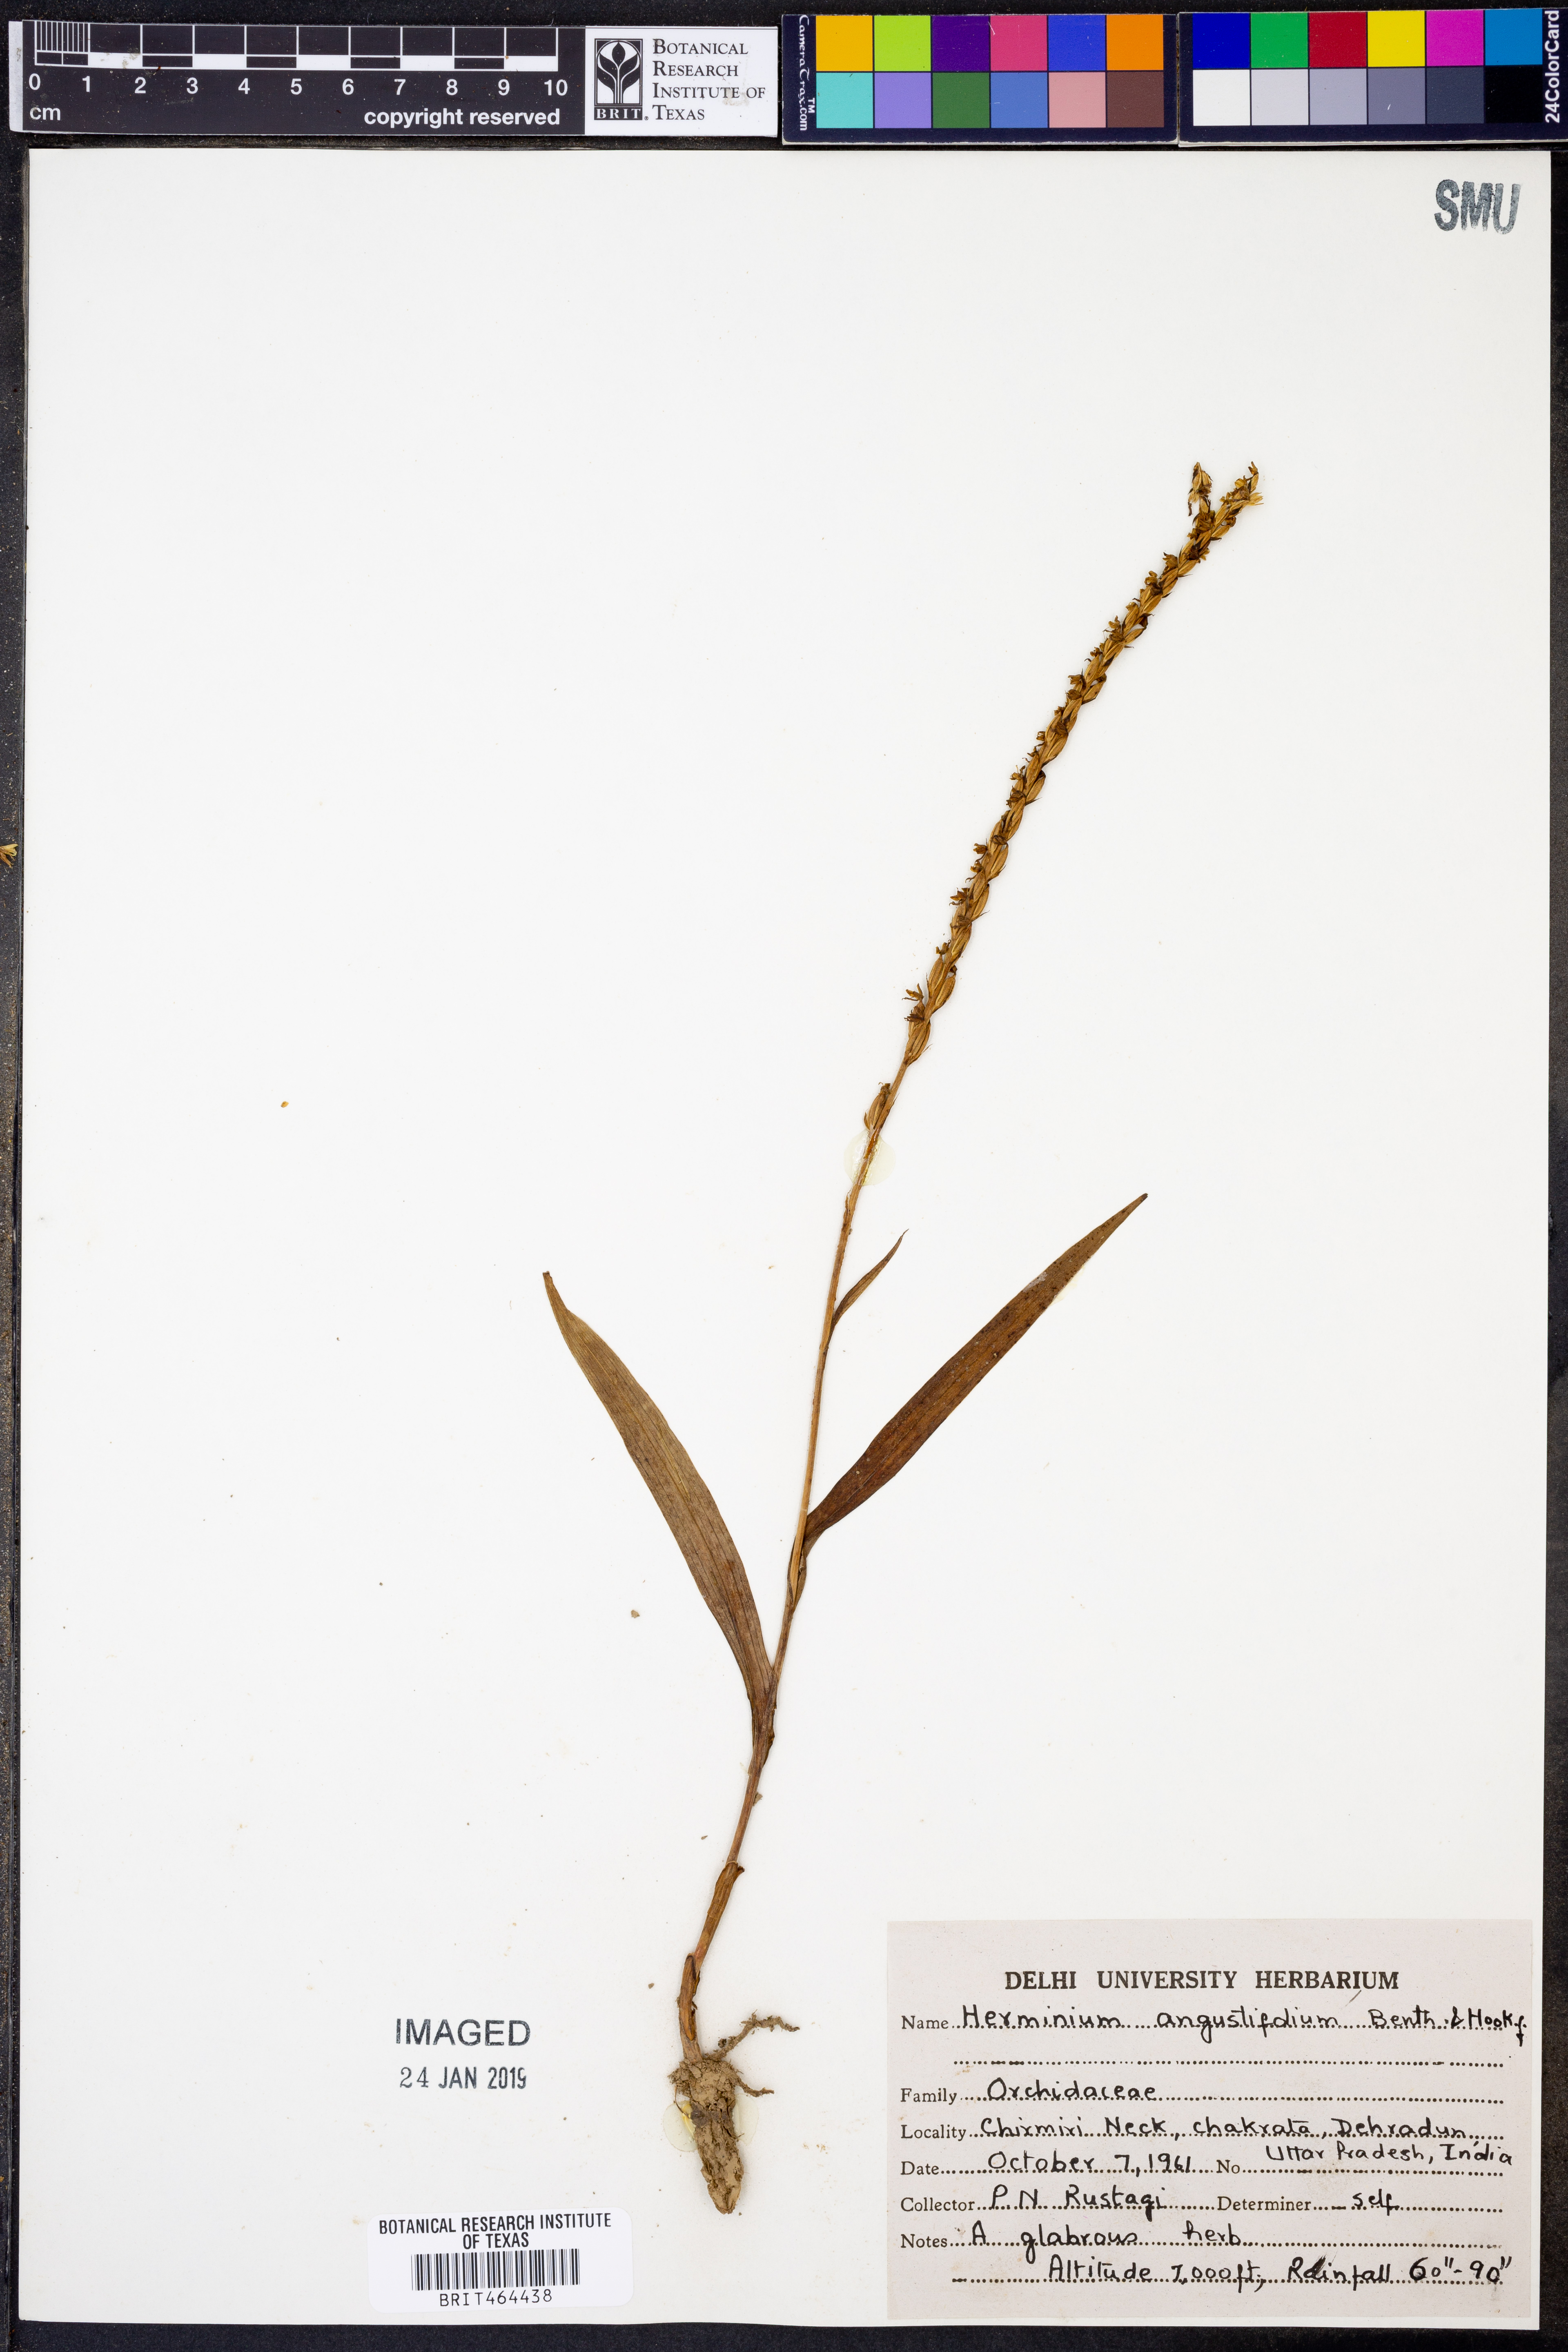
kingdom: Plantae
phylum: Tracheophyta
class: Liliopsida
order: Asparagales
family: Orchidaceae
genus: Herminium
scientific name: Herminium lanceum
